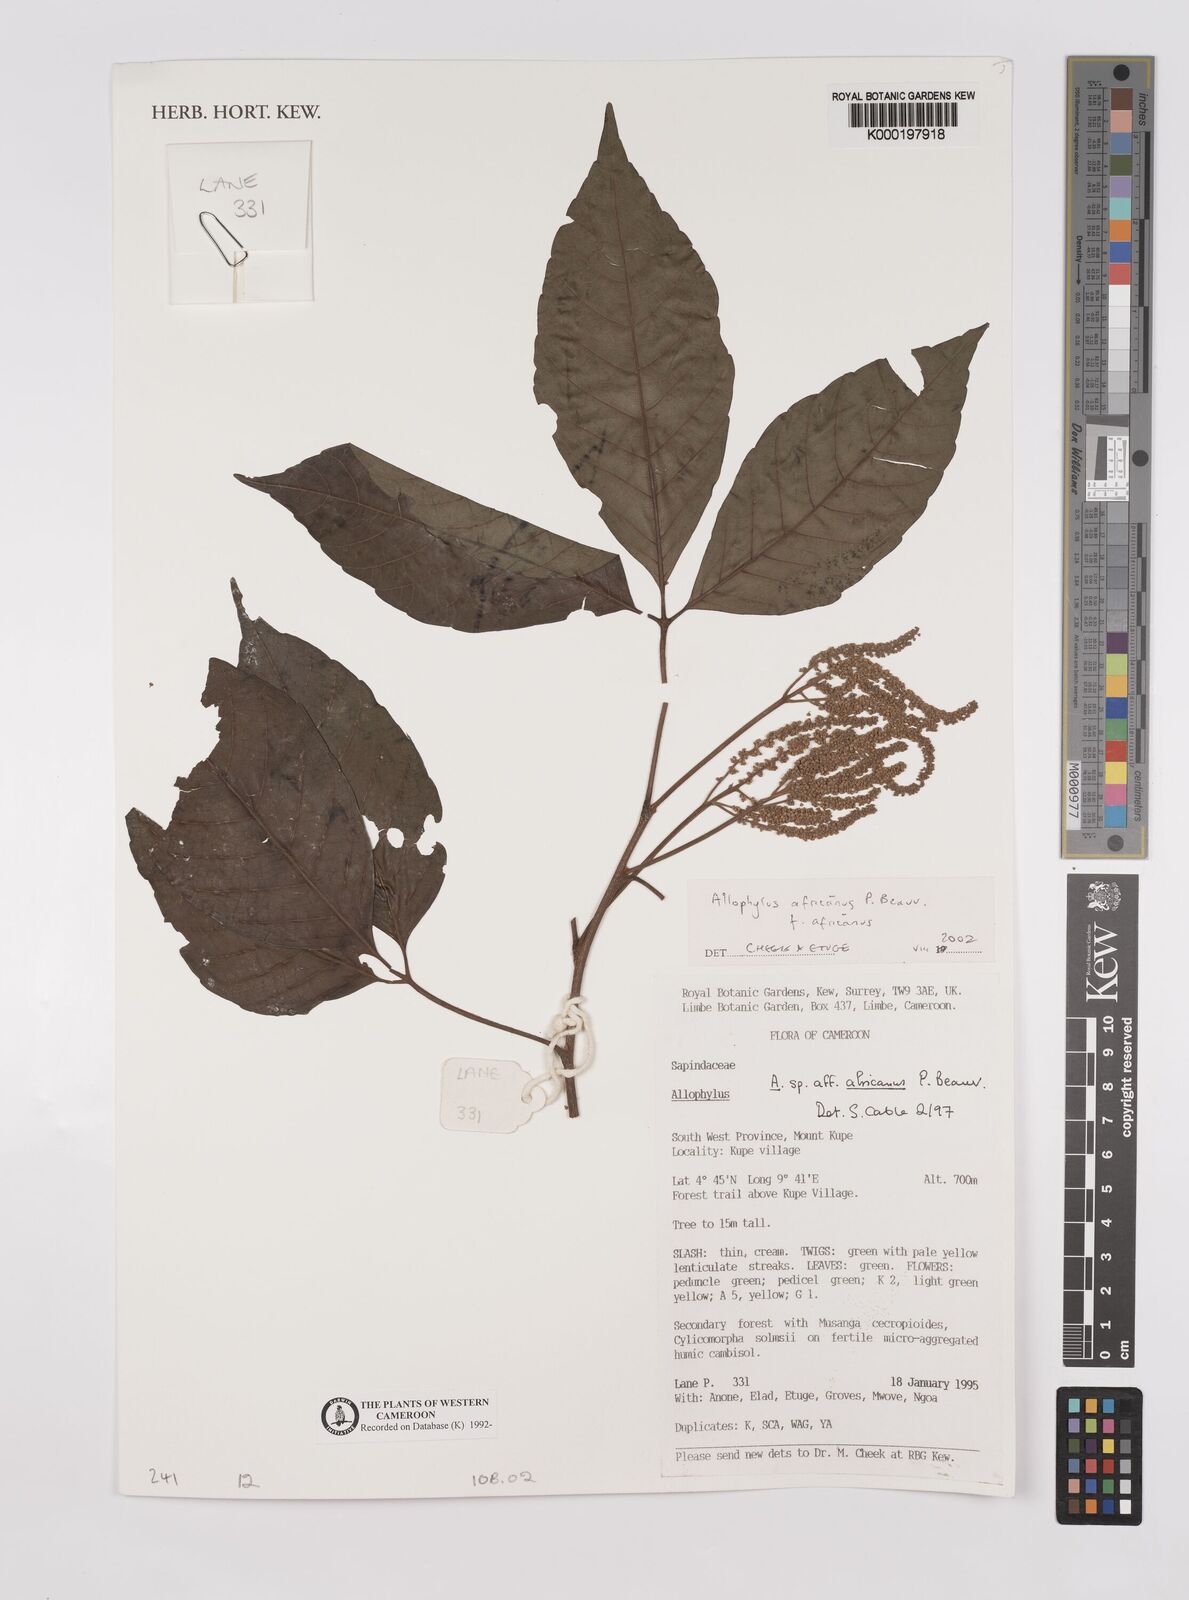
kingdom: Plantae
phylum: Tracheophyta
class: Magnoliopsida
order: Sapindales
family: Sapindaceae
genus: Allophylus
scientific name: Allophylus africanus
